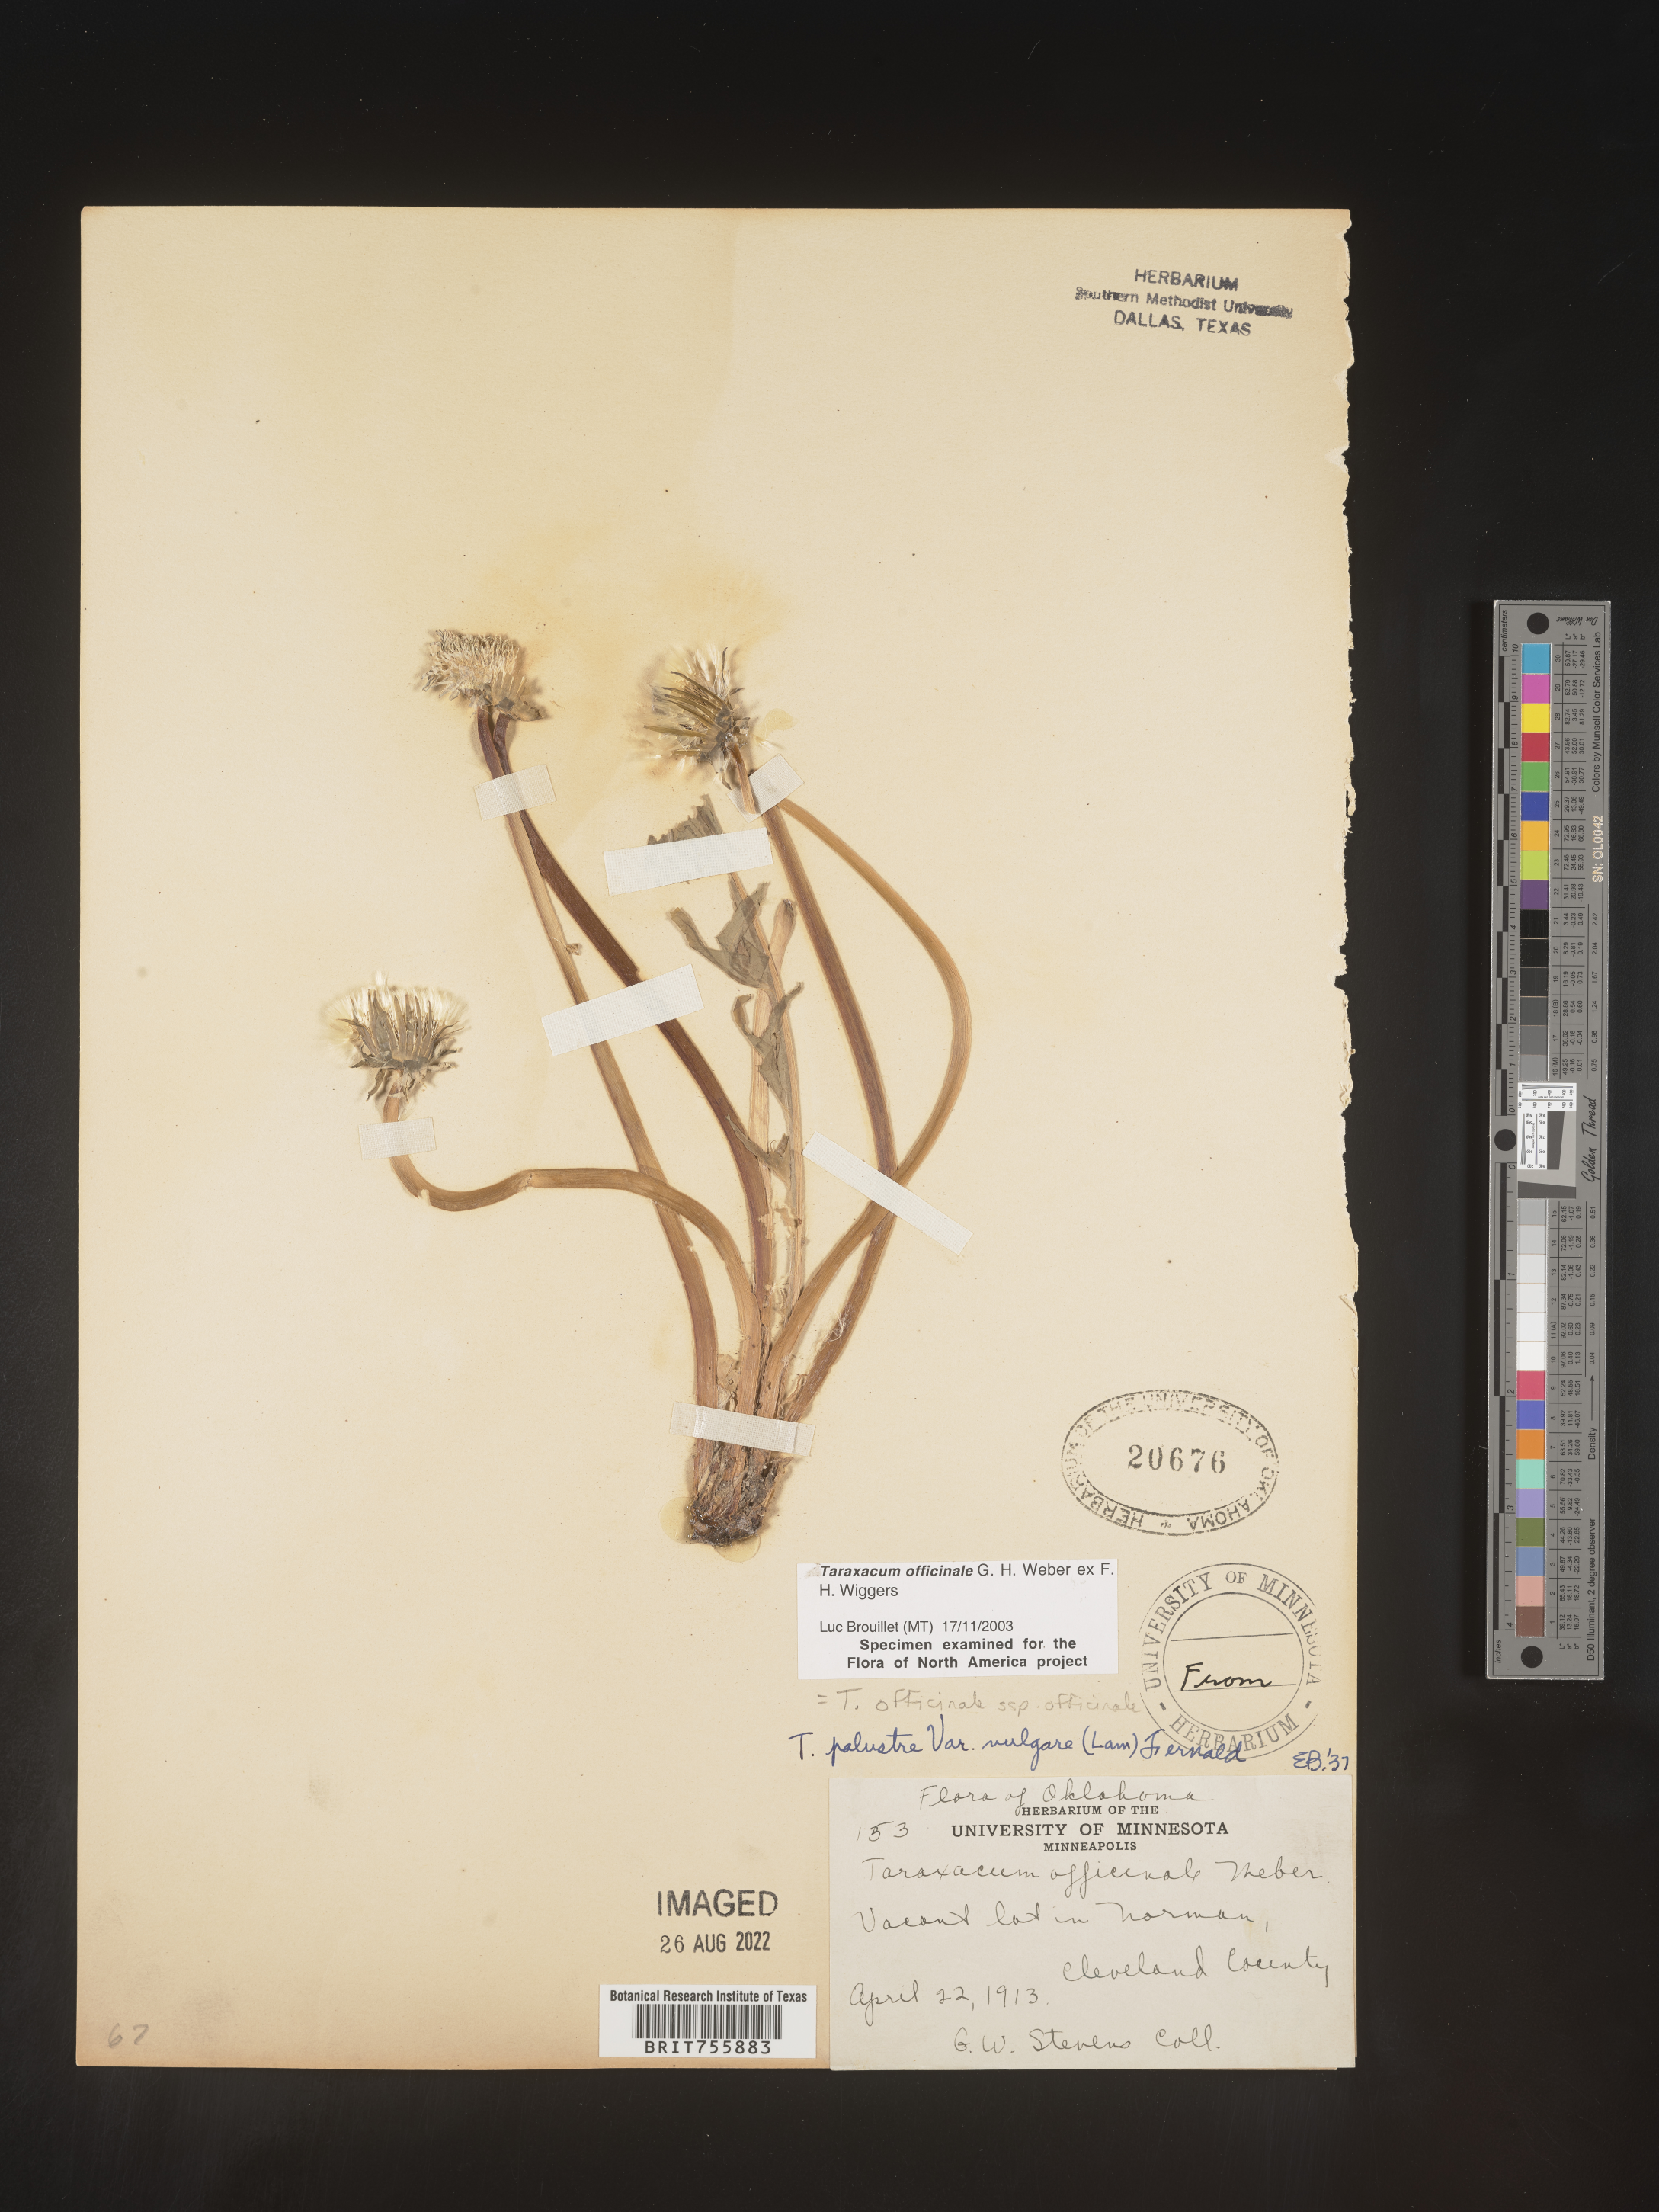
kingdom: Plantae
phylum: Tracheophyta
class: Magnoliopsida
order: Asterales
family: Asteraceae
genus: Taraxacum
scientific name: Taraxacum officinale
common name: Common dandelion
